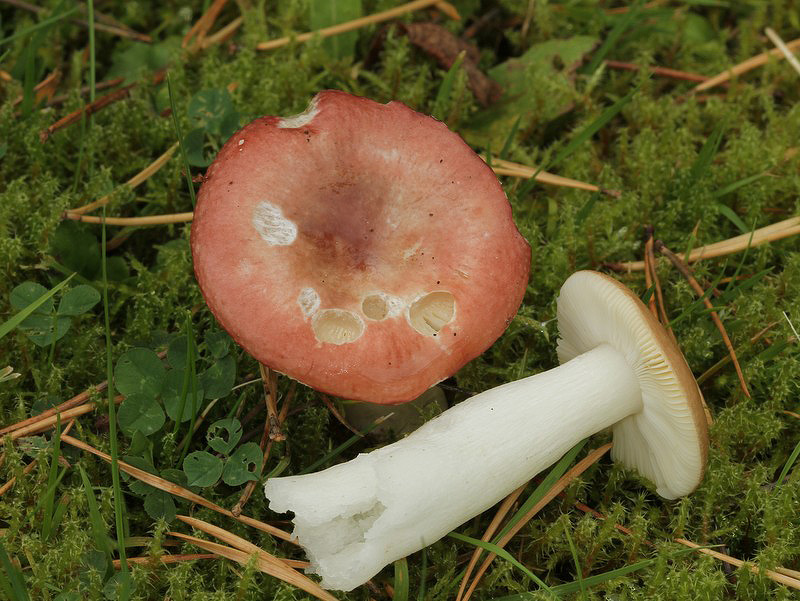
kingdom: Fungi
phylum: Basidiomycota
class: Agaricomycetes
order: Russulales
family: Russulaceae
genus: Russula
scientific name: Russula cessans
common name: fyrre-skørhat
